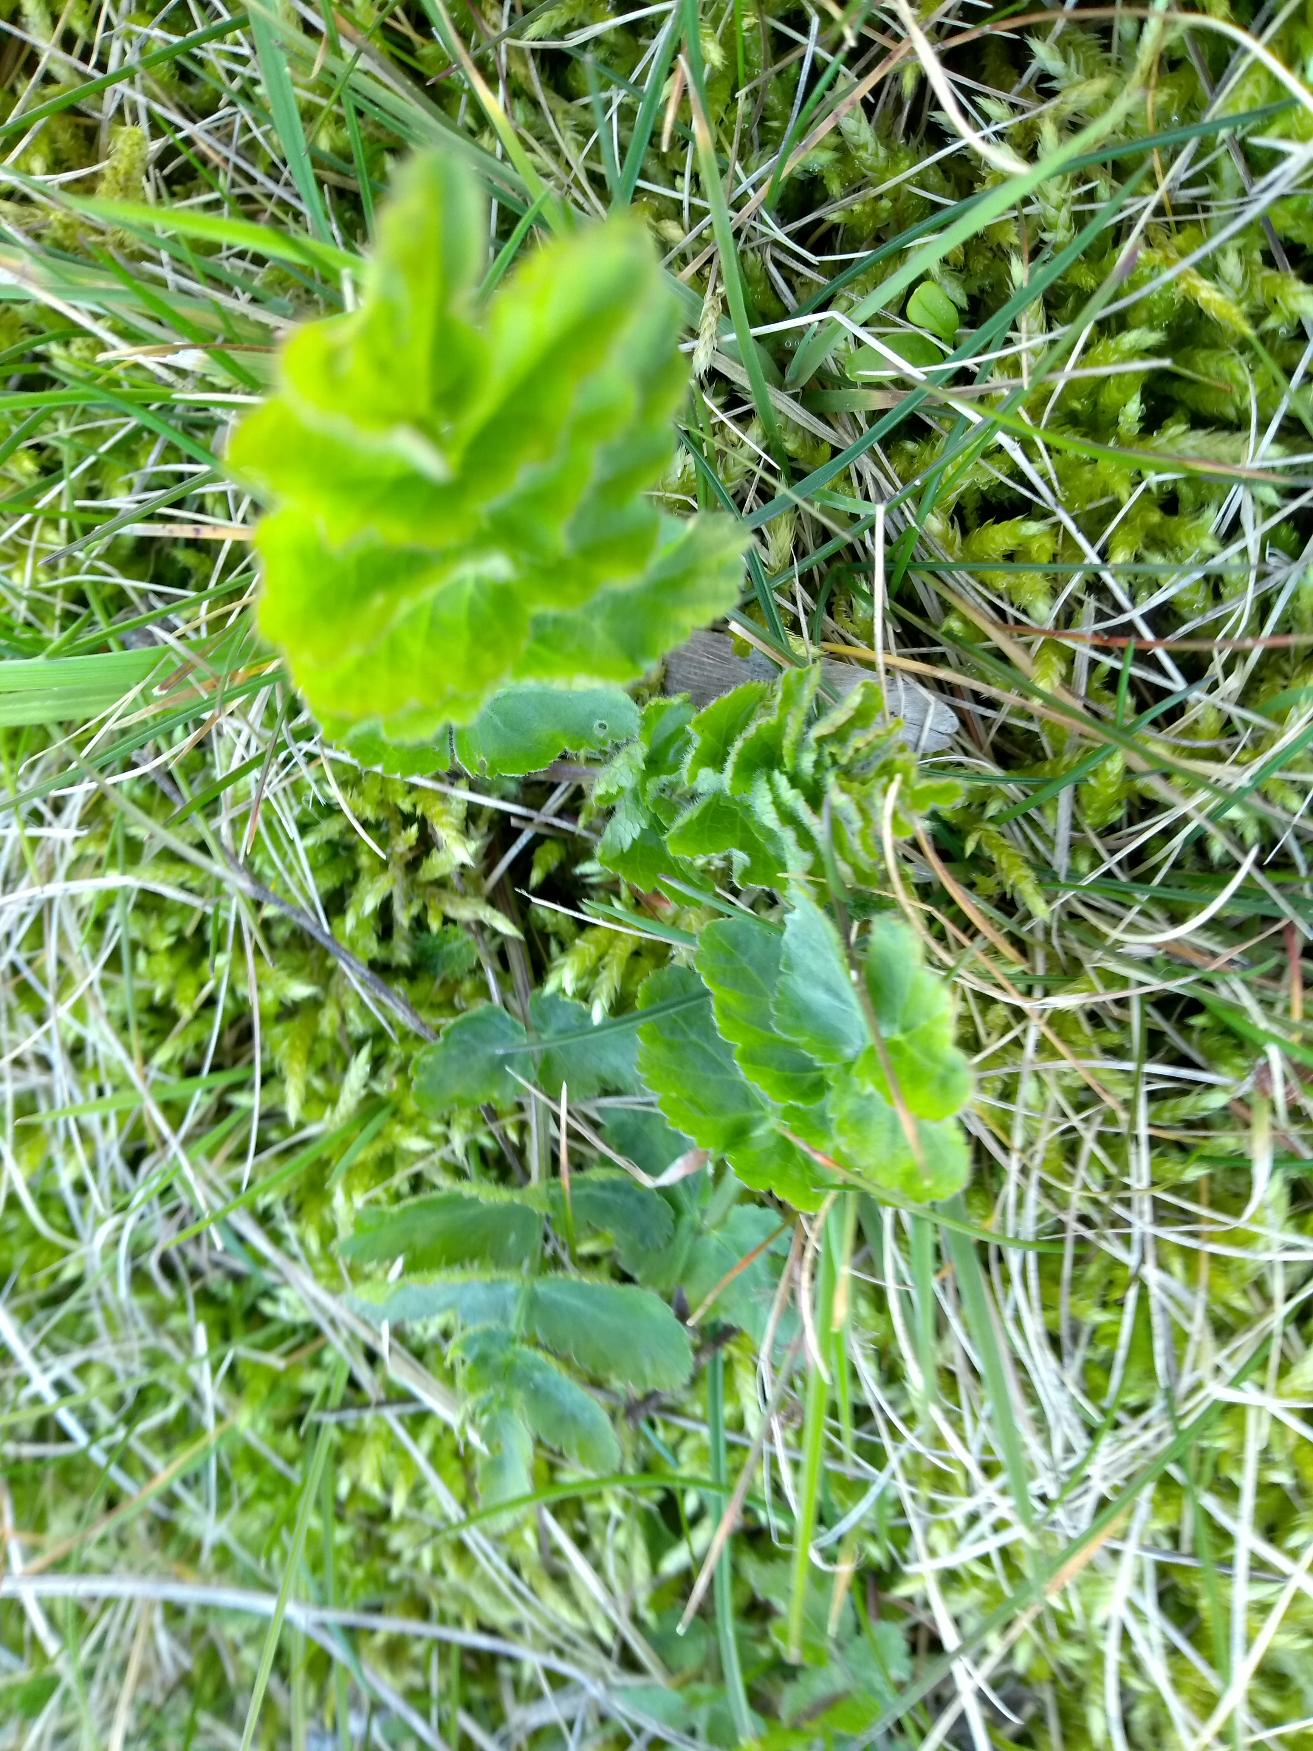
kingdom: Plantae
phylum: Tracheophyta
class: Magnoliopsida
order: Apiales
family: Apiaceae
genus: Pastinaca
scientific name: Pastinaca sativa
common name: Pastinak
